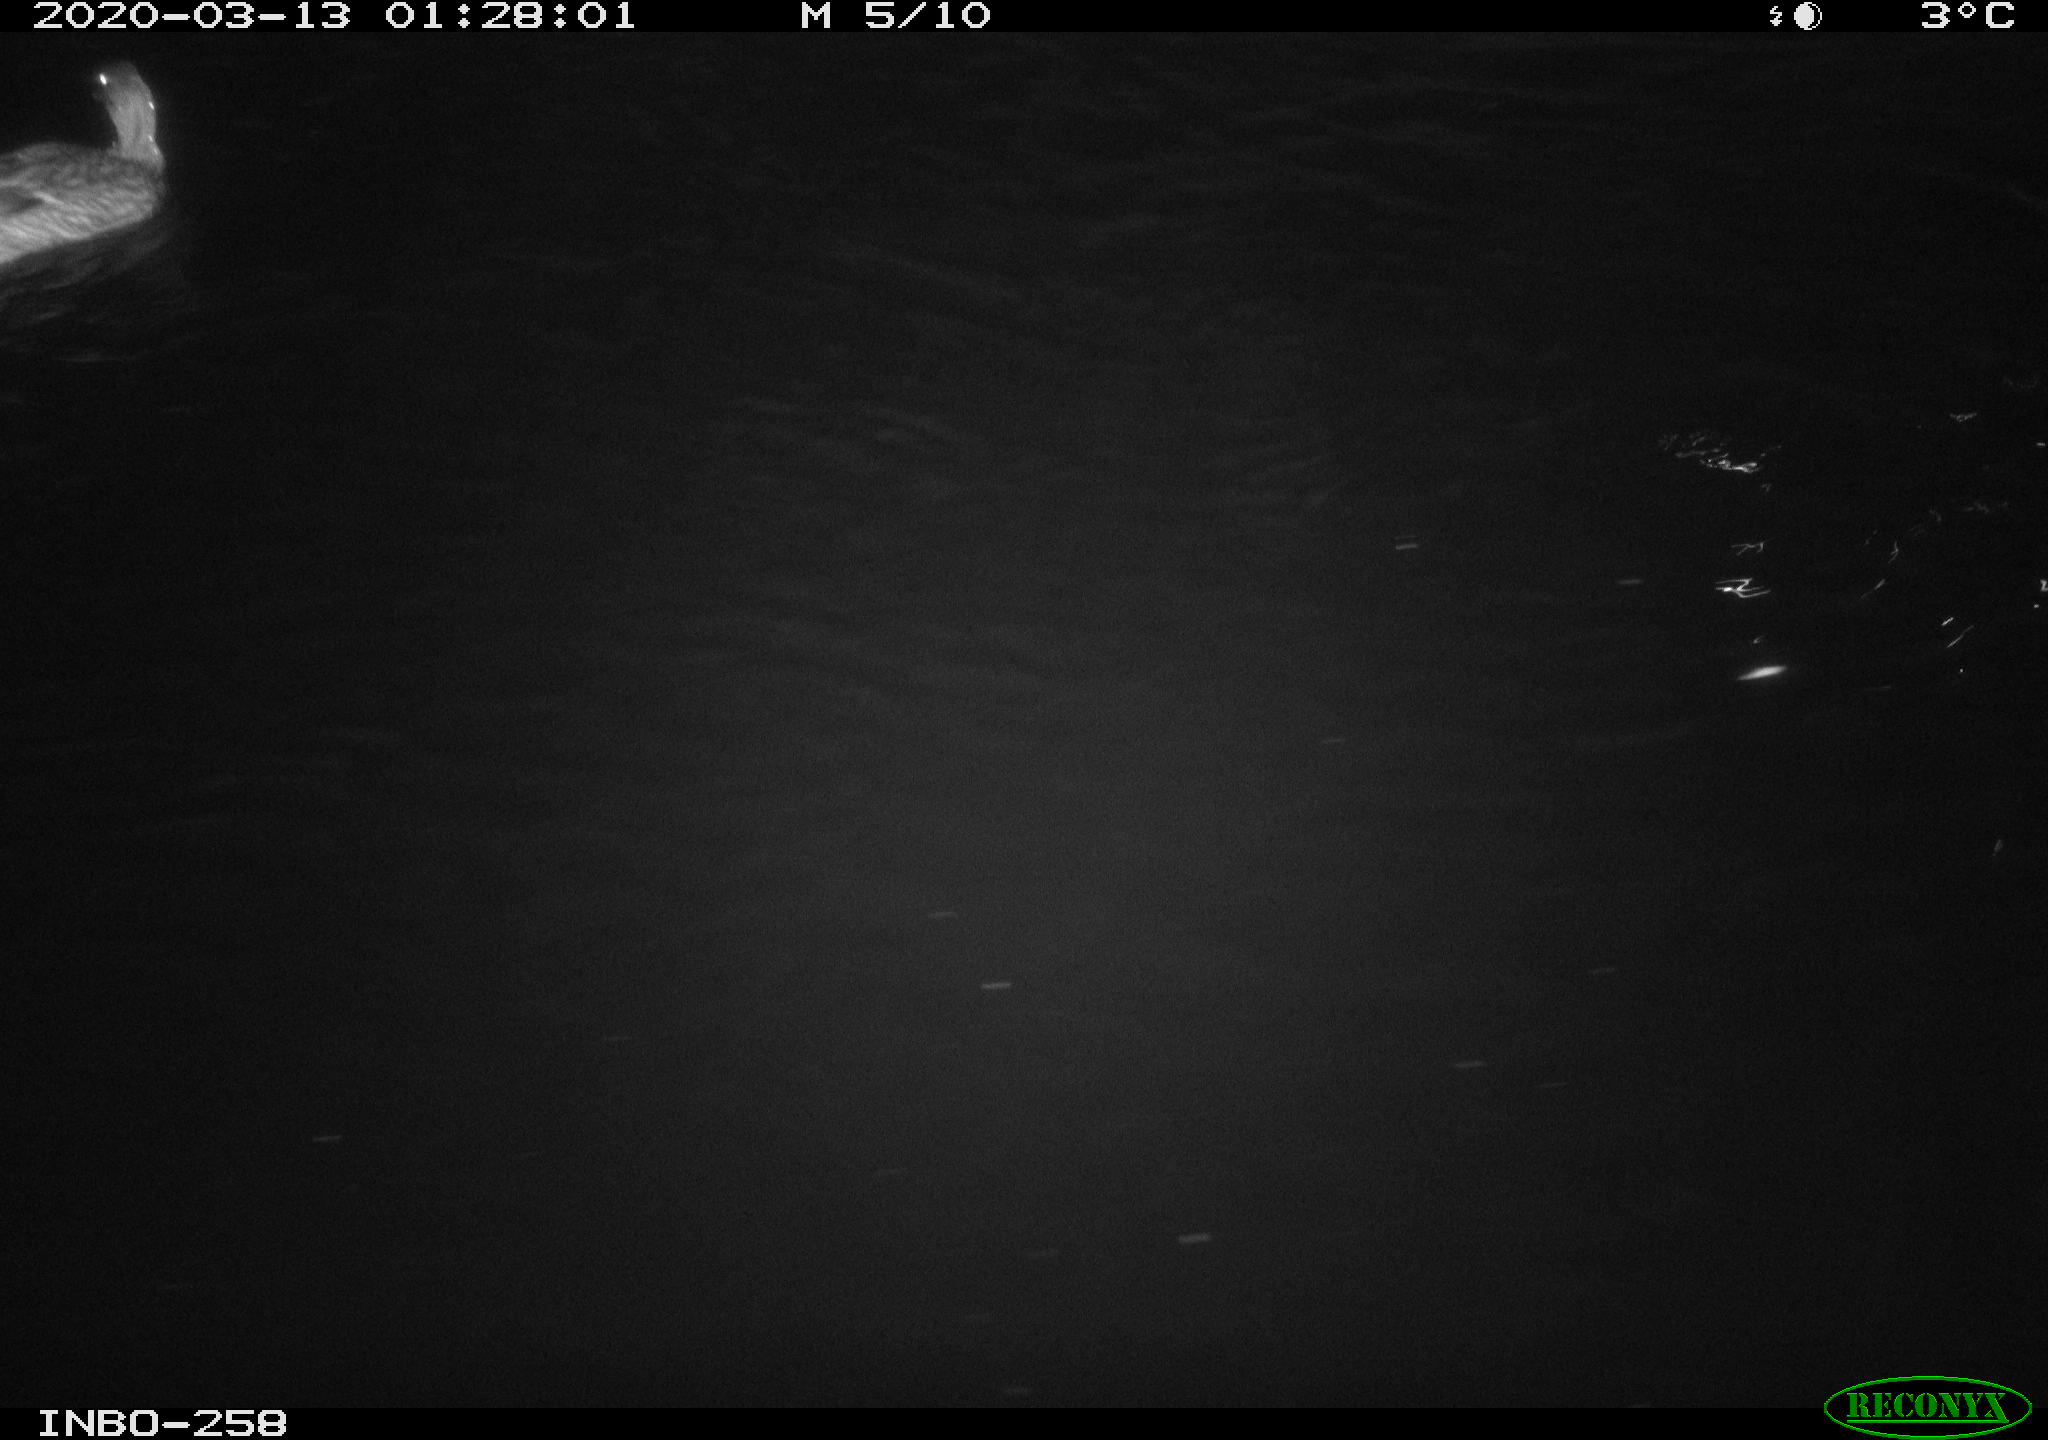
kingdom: Animalia
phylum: Chordata
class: Aves
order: Anseriformes
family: Anatidae
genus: Anas
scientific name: Anas platyrhynchos
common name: Mallard
